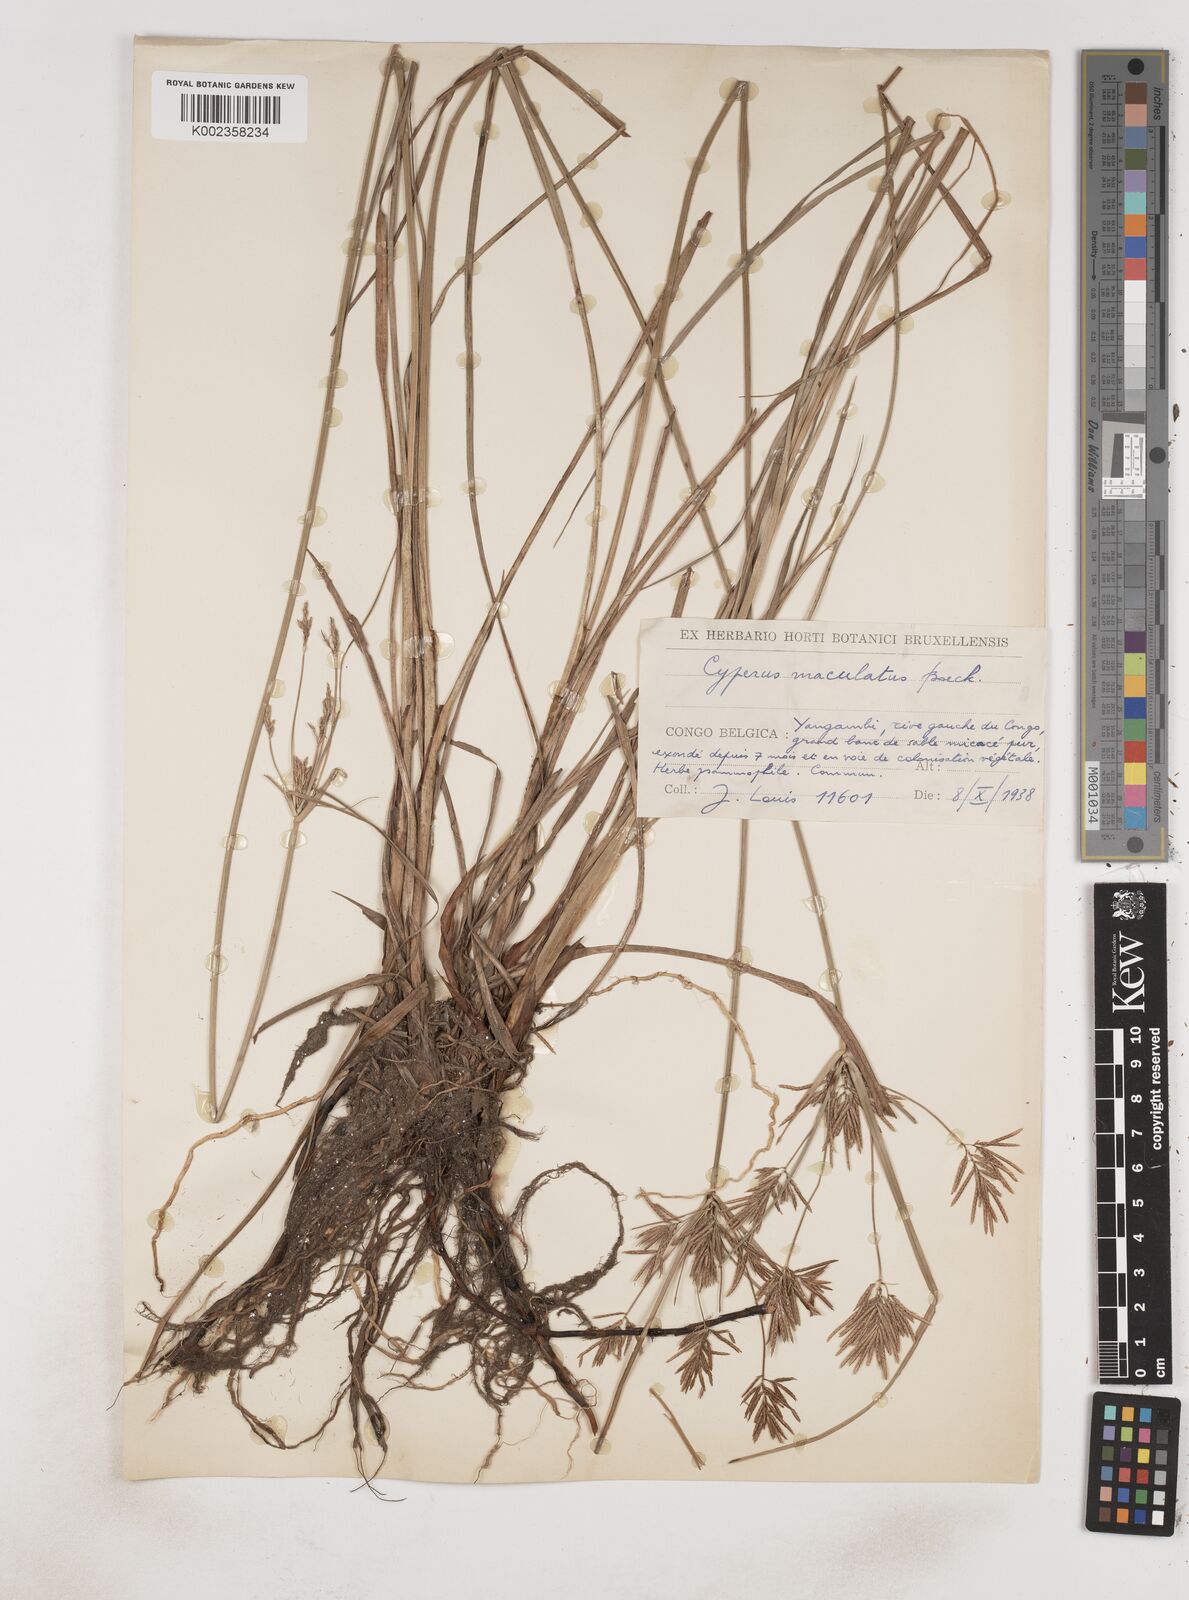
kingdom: Plantae
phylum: Tracheophyta
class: Liliopsida
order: Poales
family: Cyperaceae
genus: Cyperus
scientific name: Cyperus maculatus
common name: Maculated sedge
